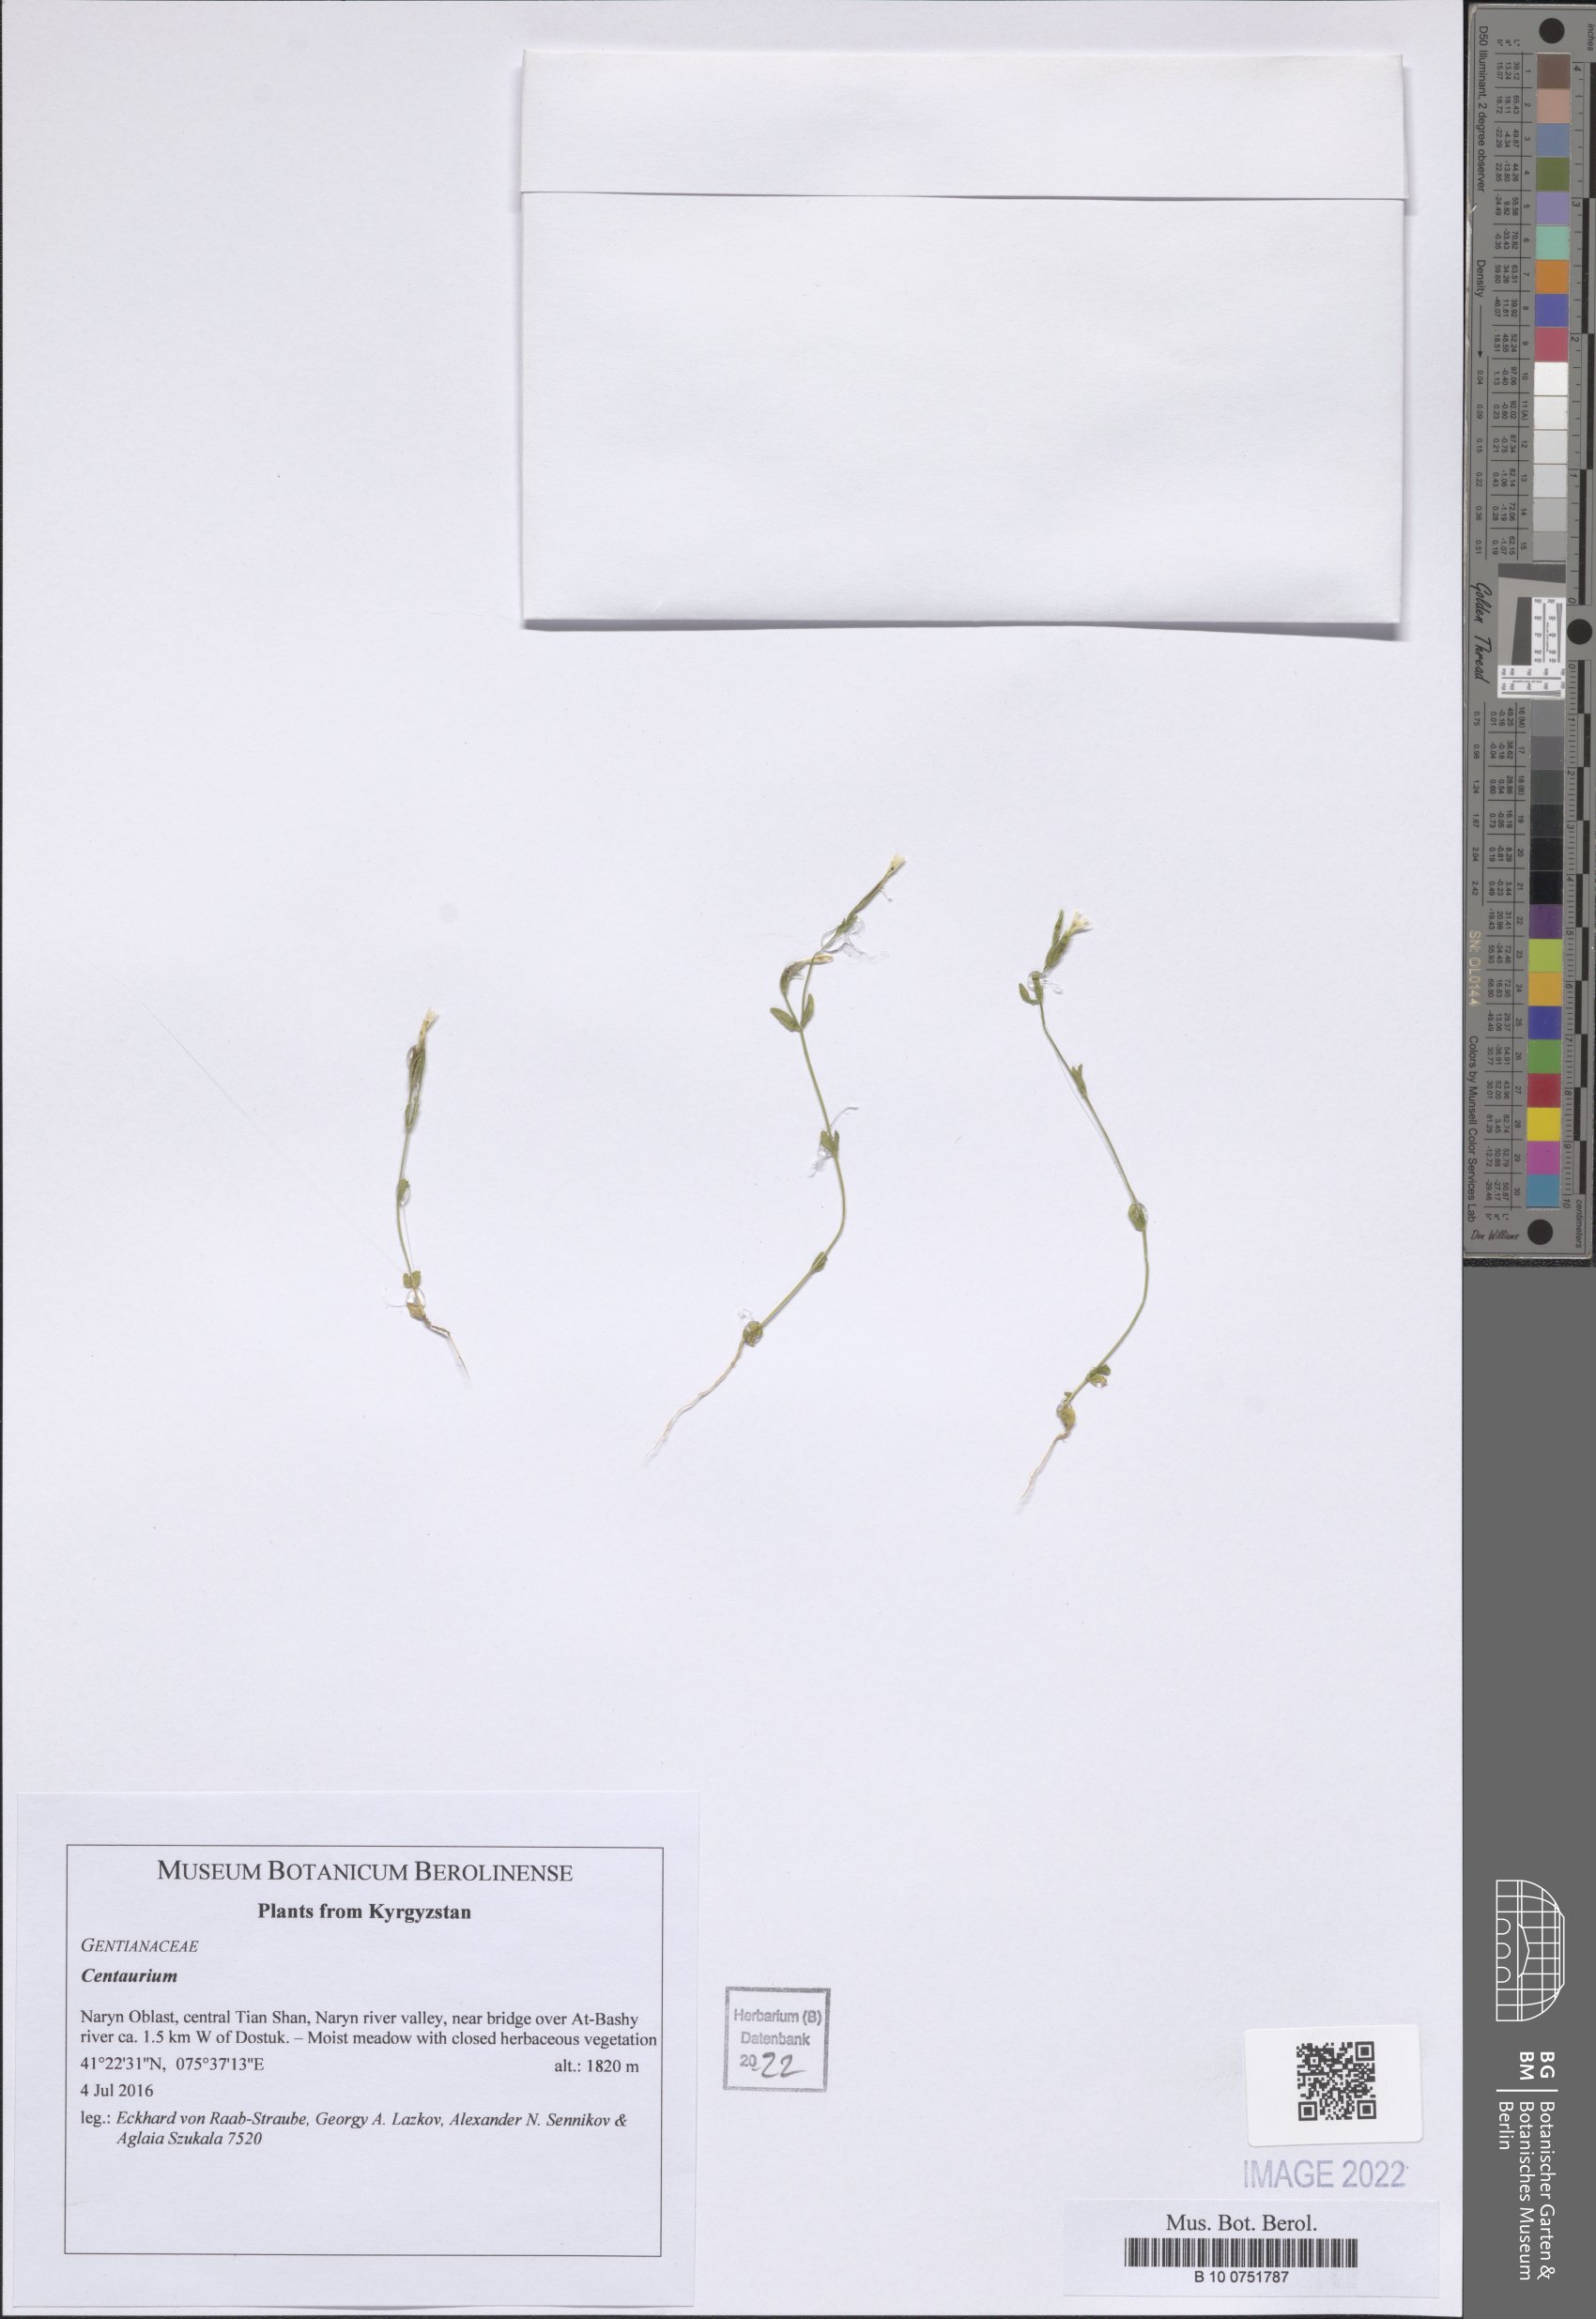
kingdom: Plantae
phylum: Tracheophyta
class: Magnoliopsida
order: Gentianales
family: Gentianaceae
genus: Centaurium
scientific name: Centaurium
